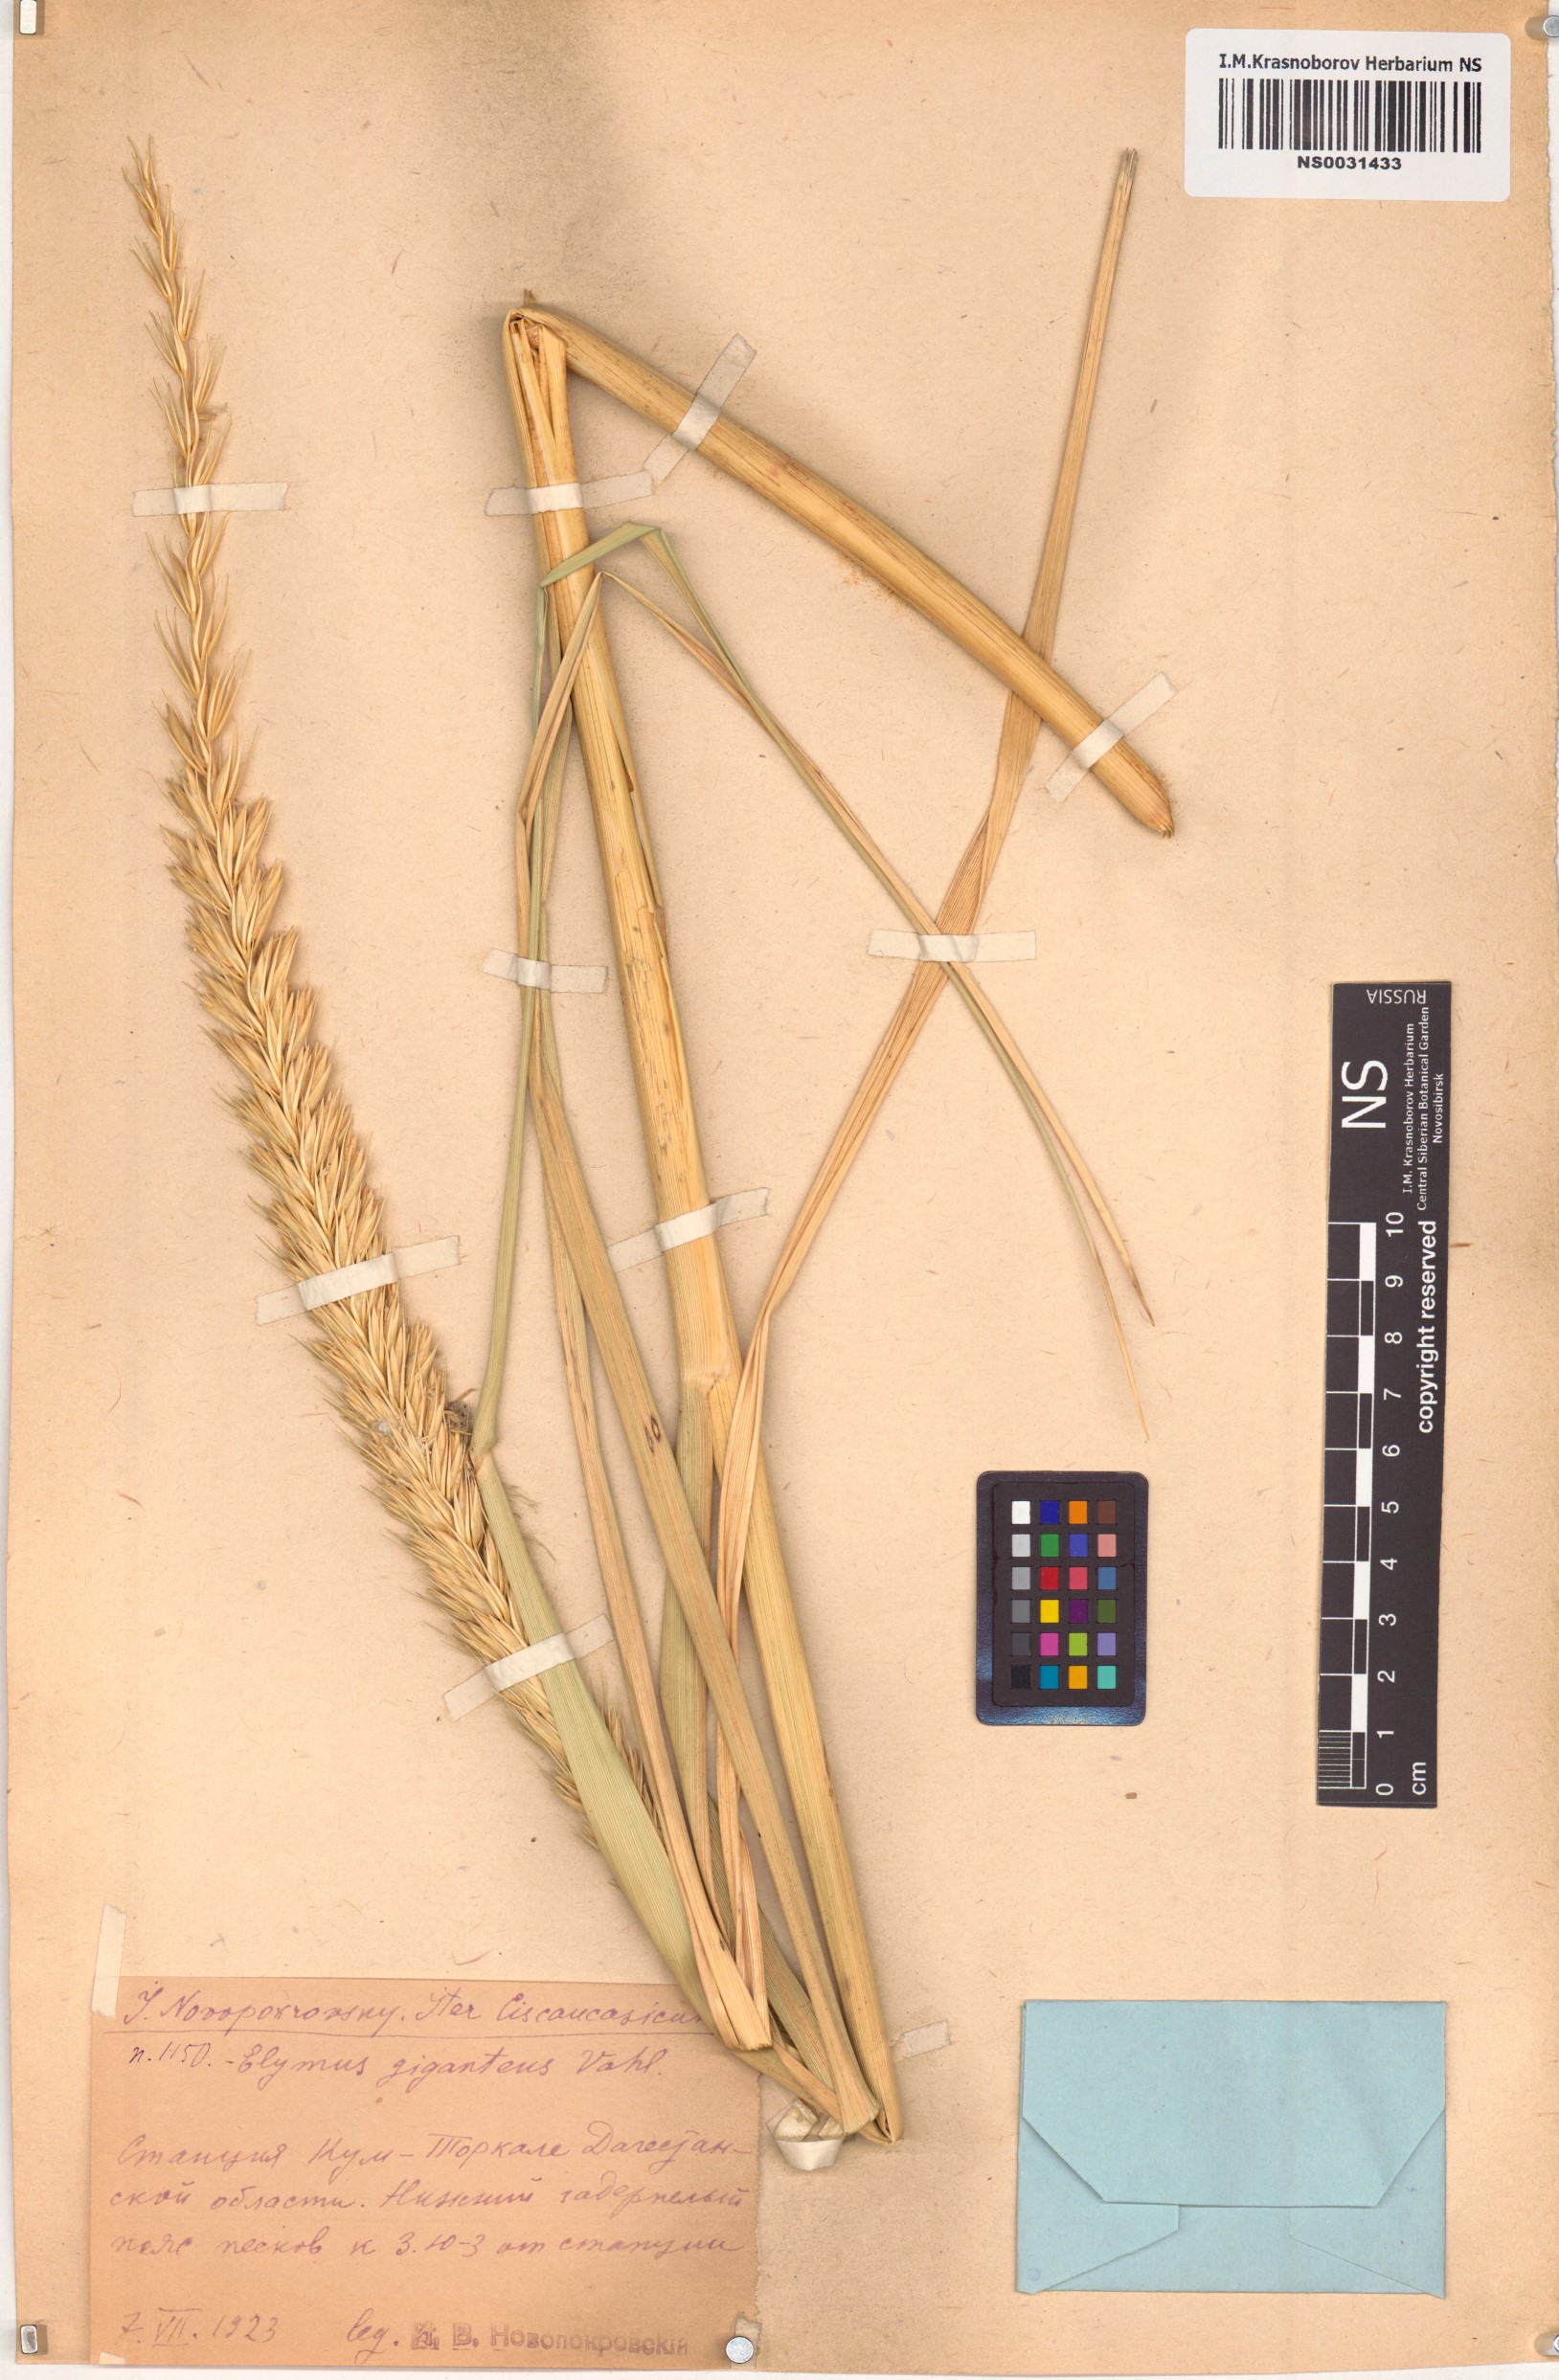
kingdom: Plantae
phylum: Tracheophyta
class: Liliopsida
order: Poales
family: Poaceae
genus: Leymus
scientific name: Leymus racemosus
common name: Mammoth wildrye
